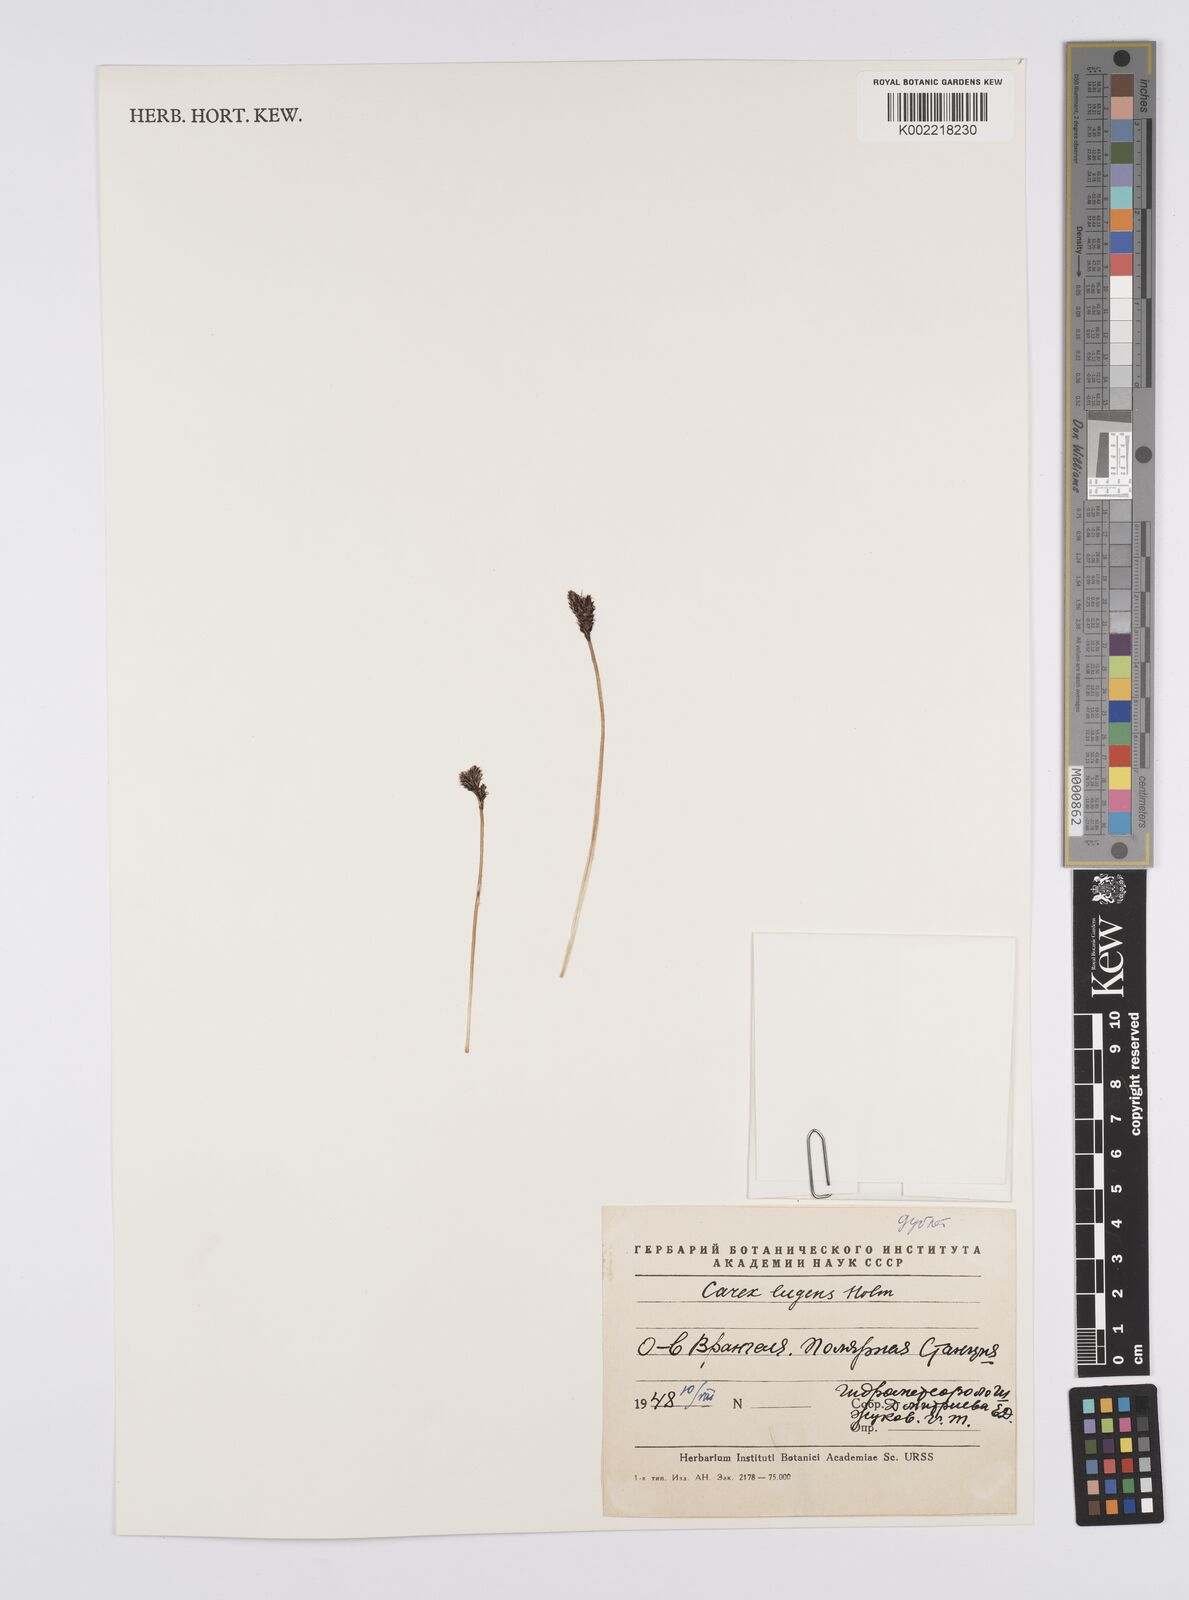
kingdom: Plantae
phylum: Tracheophyta
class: Liliopsida
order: Poales
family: Cyperaceae
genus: Carex
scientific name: Carex bigelowii
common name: Stiff sedge
